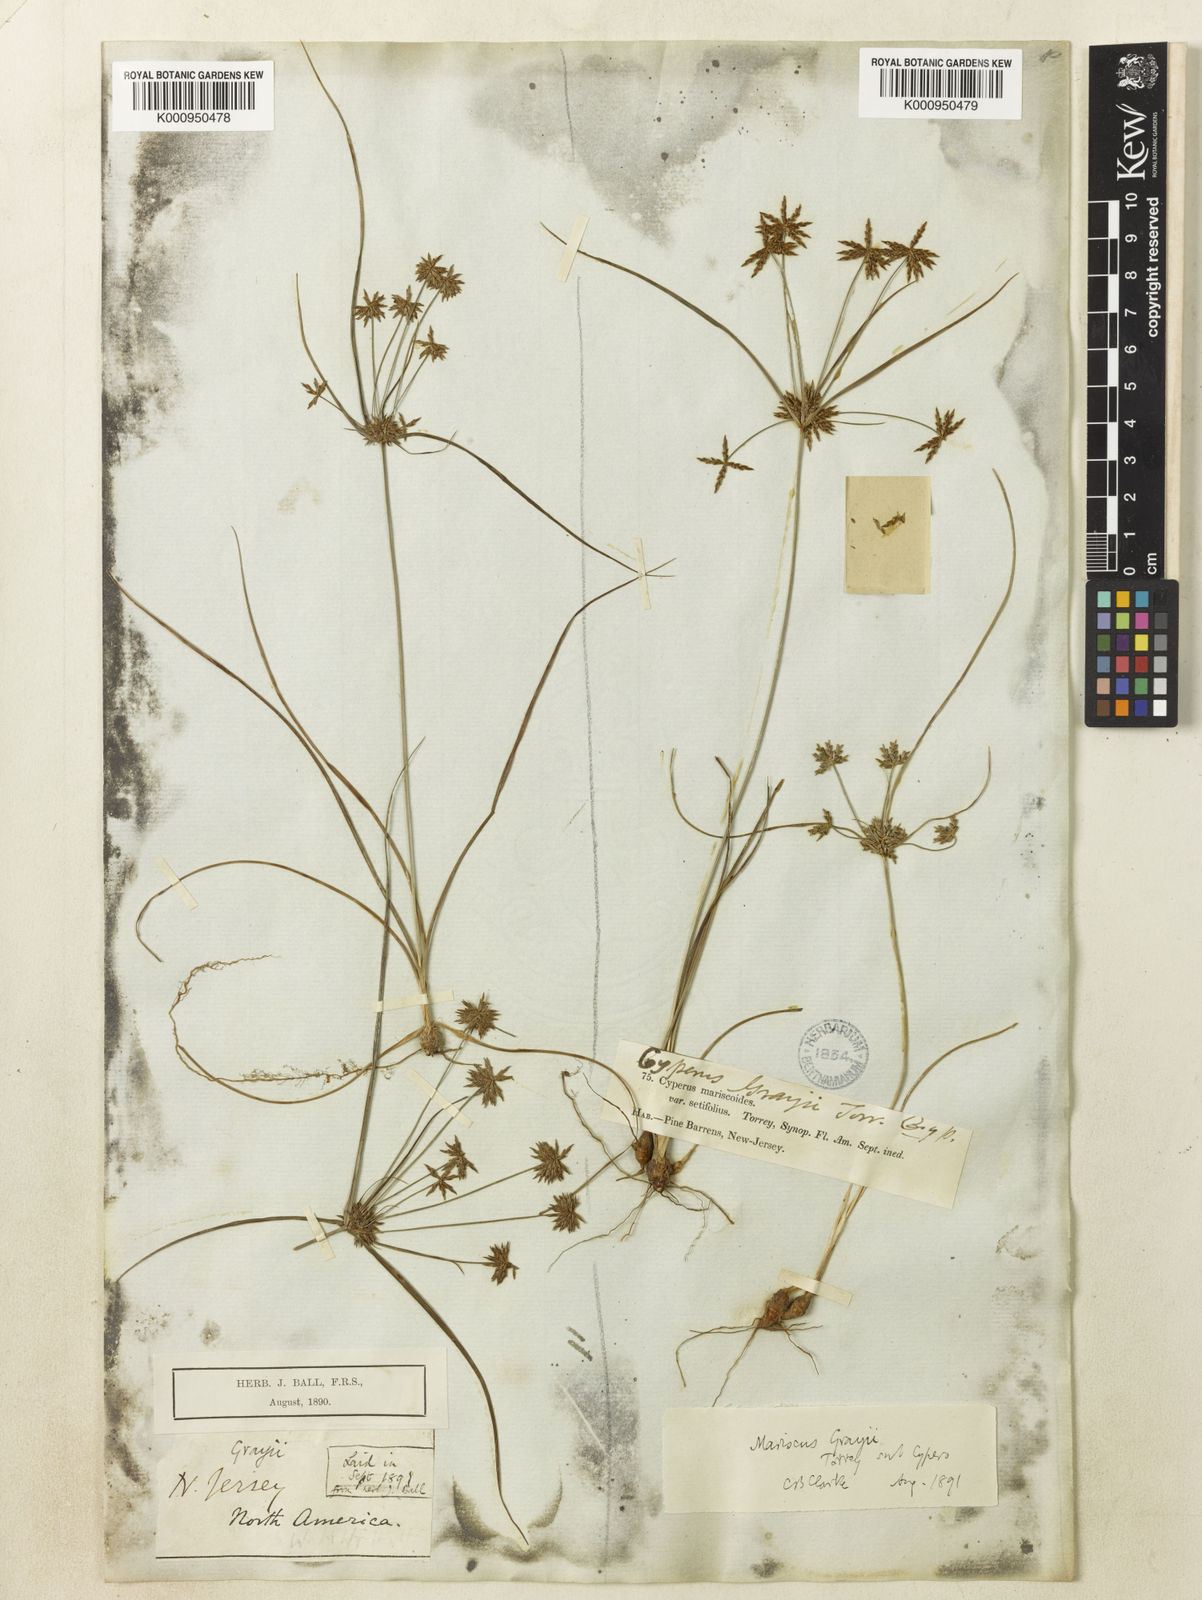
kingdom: Plantae
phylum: Tracheophyta
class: Liliopsida
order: Poales
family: Cyperaceae
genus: Cyperus
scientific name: Cyperus grayi
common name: Gray's flat sedge
